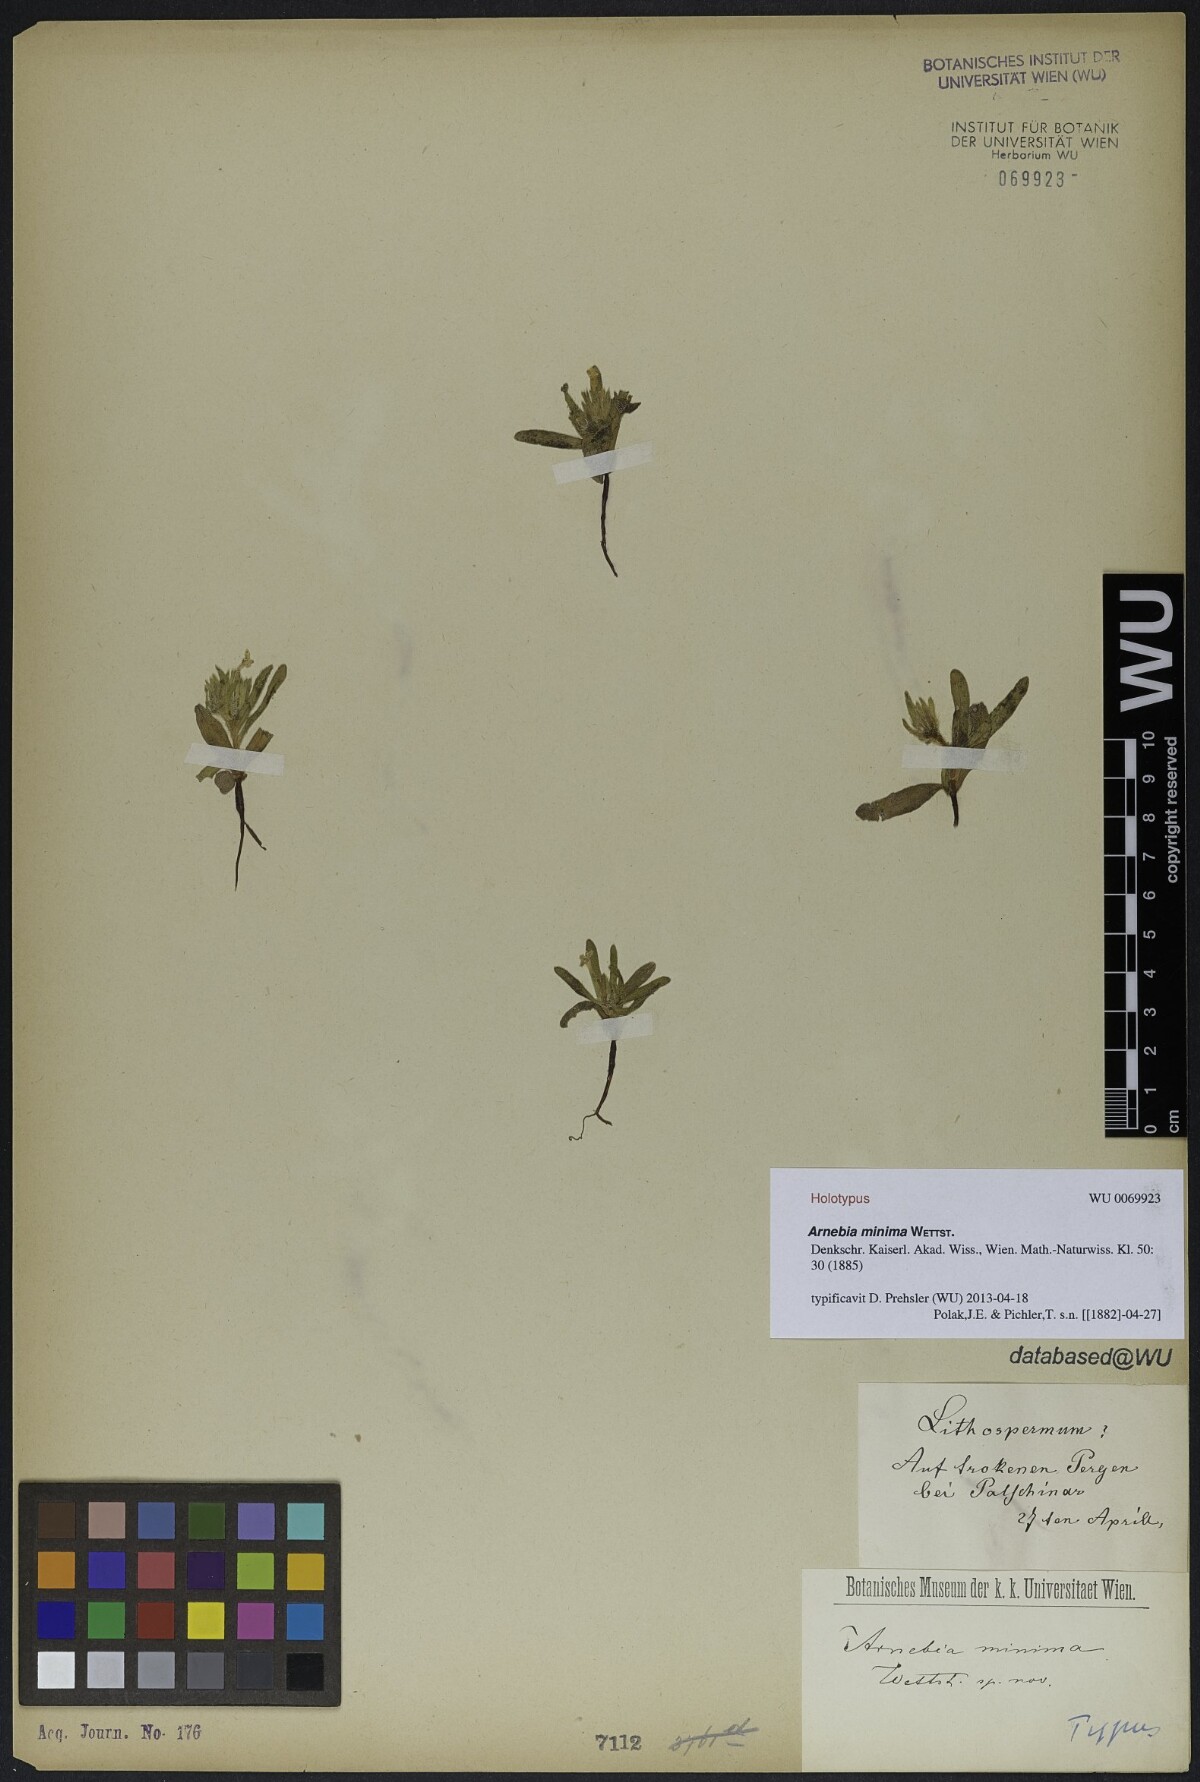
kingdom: Plantae
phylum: Tracheophyta
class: Magnoliopsida
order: Boraginales
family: Boraginaceae
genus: Arnebia
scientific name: Arnebia minima
